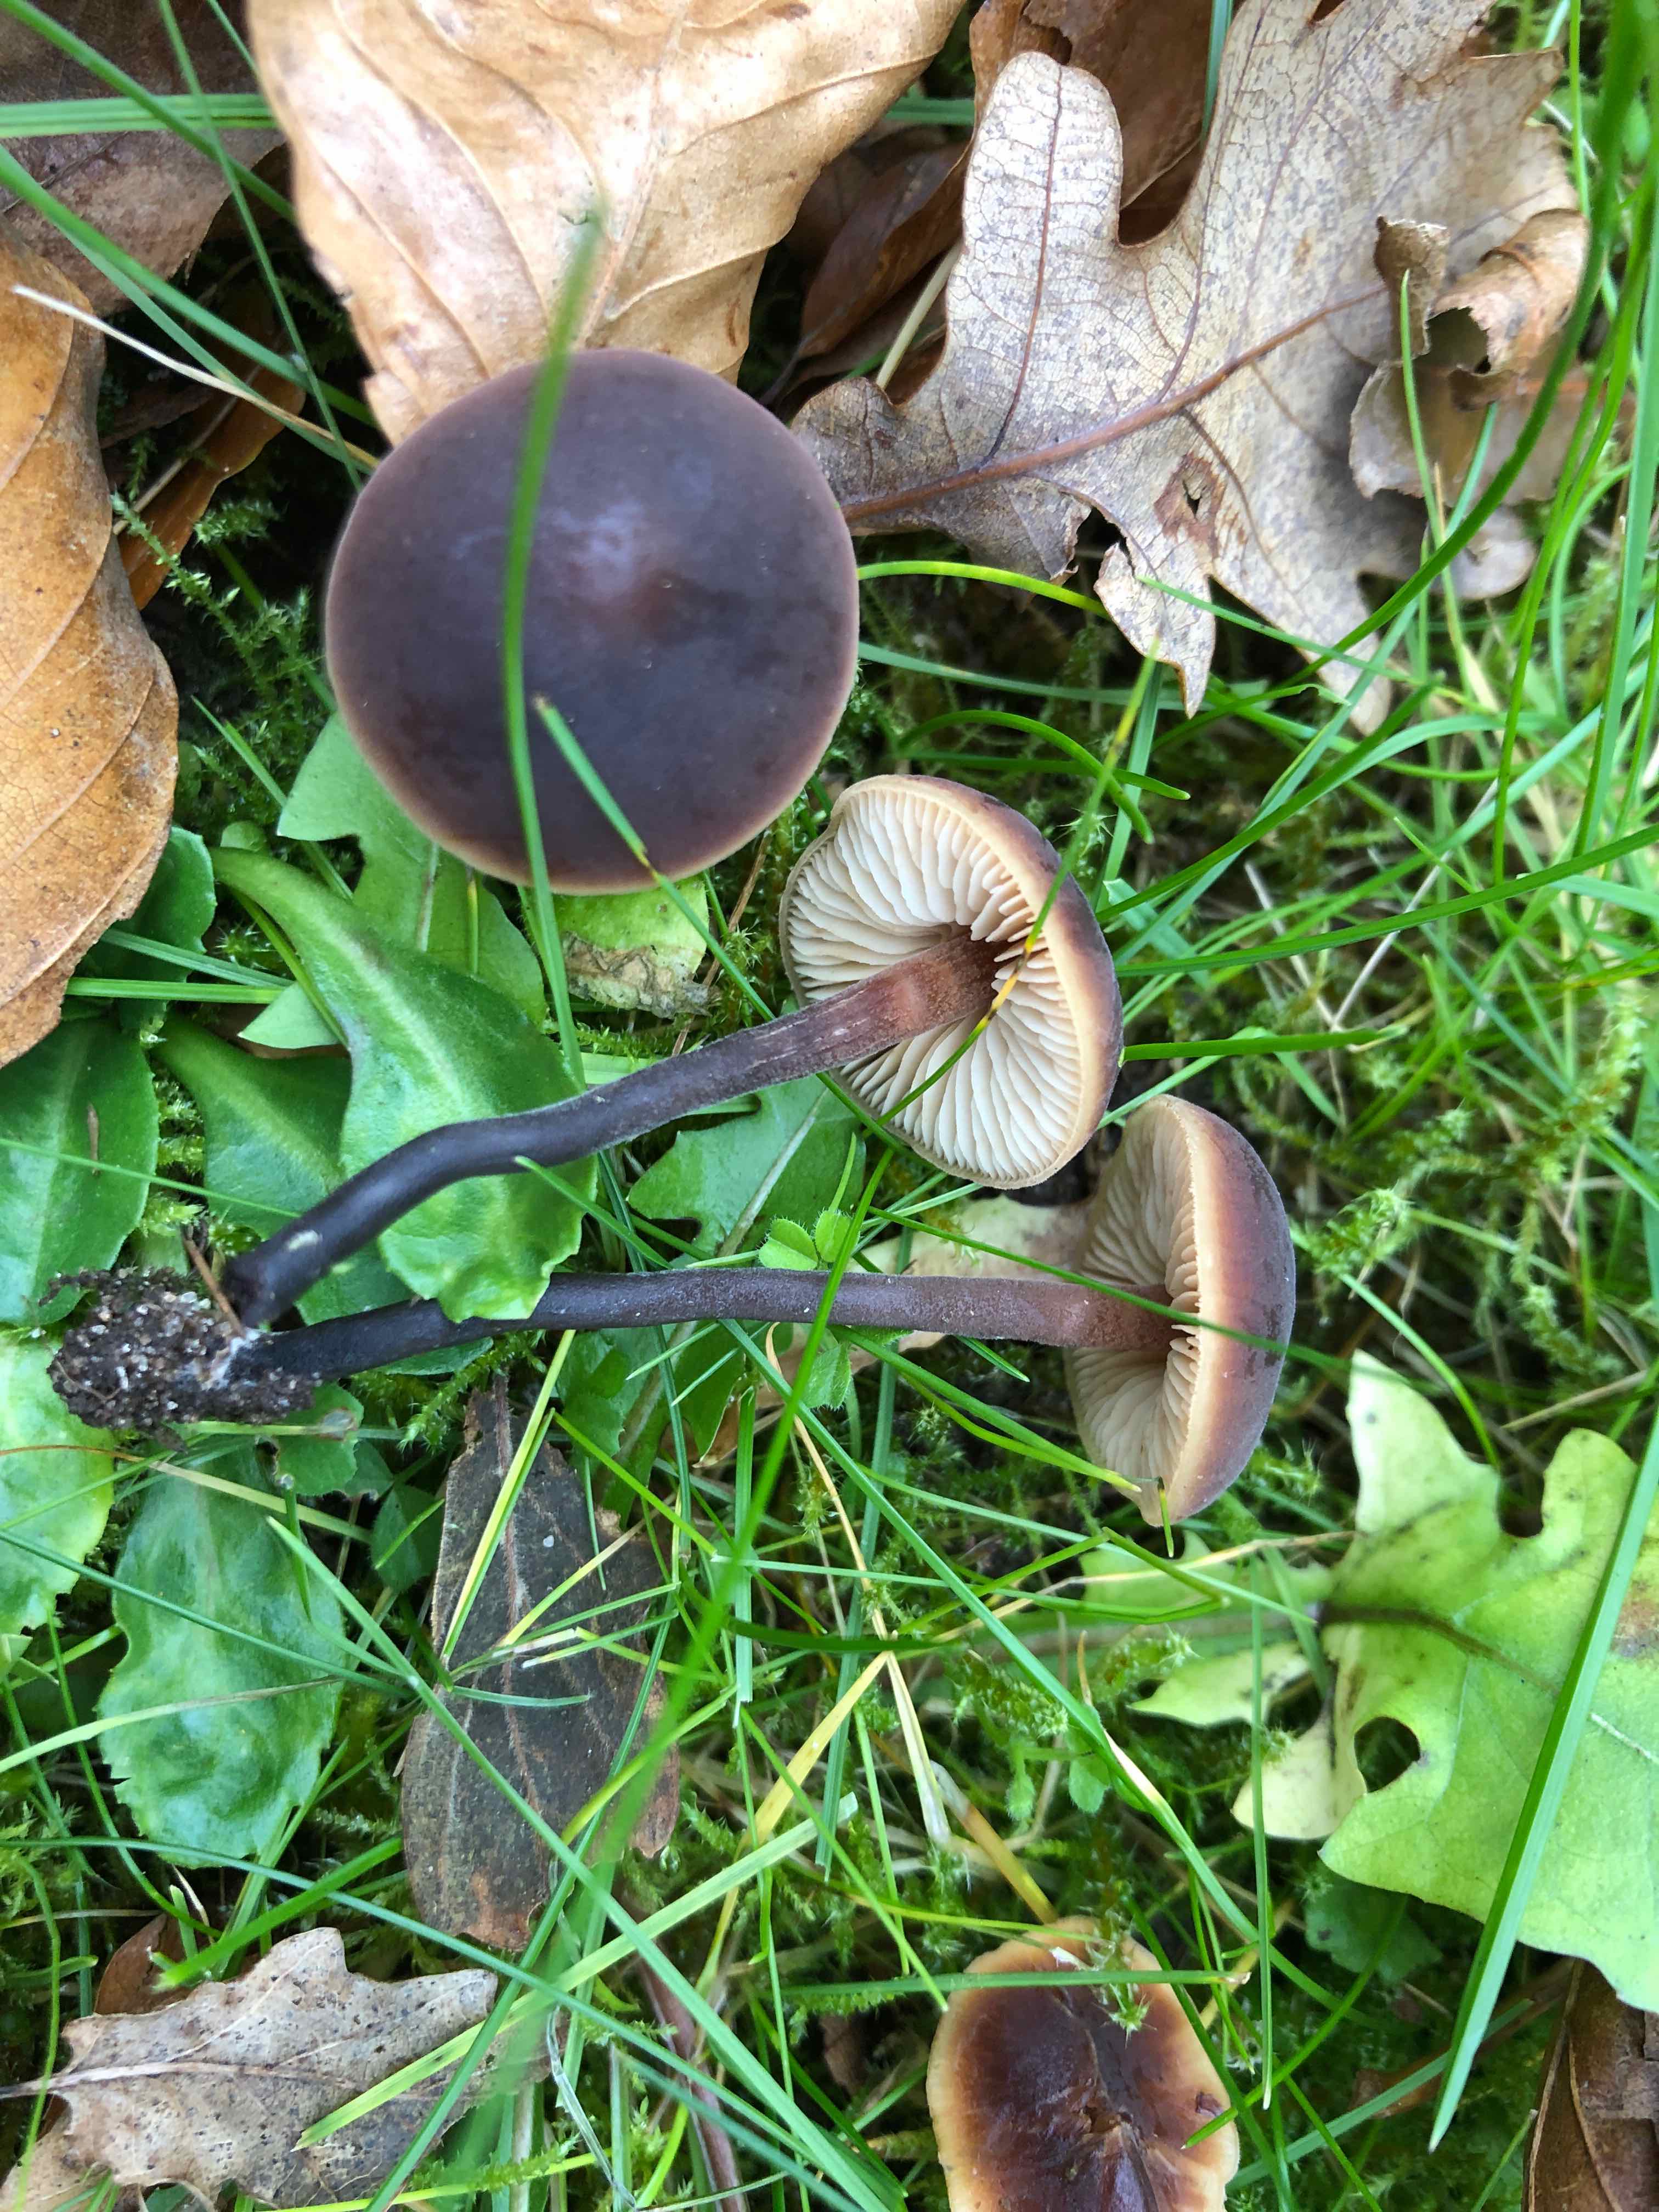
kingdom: Fungi
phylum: Basidiomycota
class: Agaricomycetes
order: Agaricales
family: Macrocystidiaceae
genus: Macrocystidia
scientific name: Macrocystidia cucumis
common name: agurkehat
